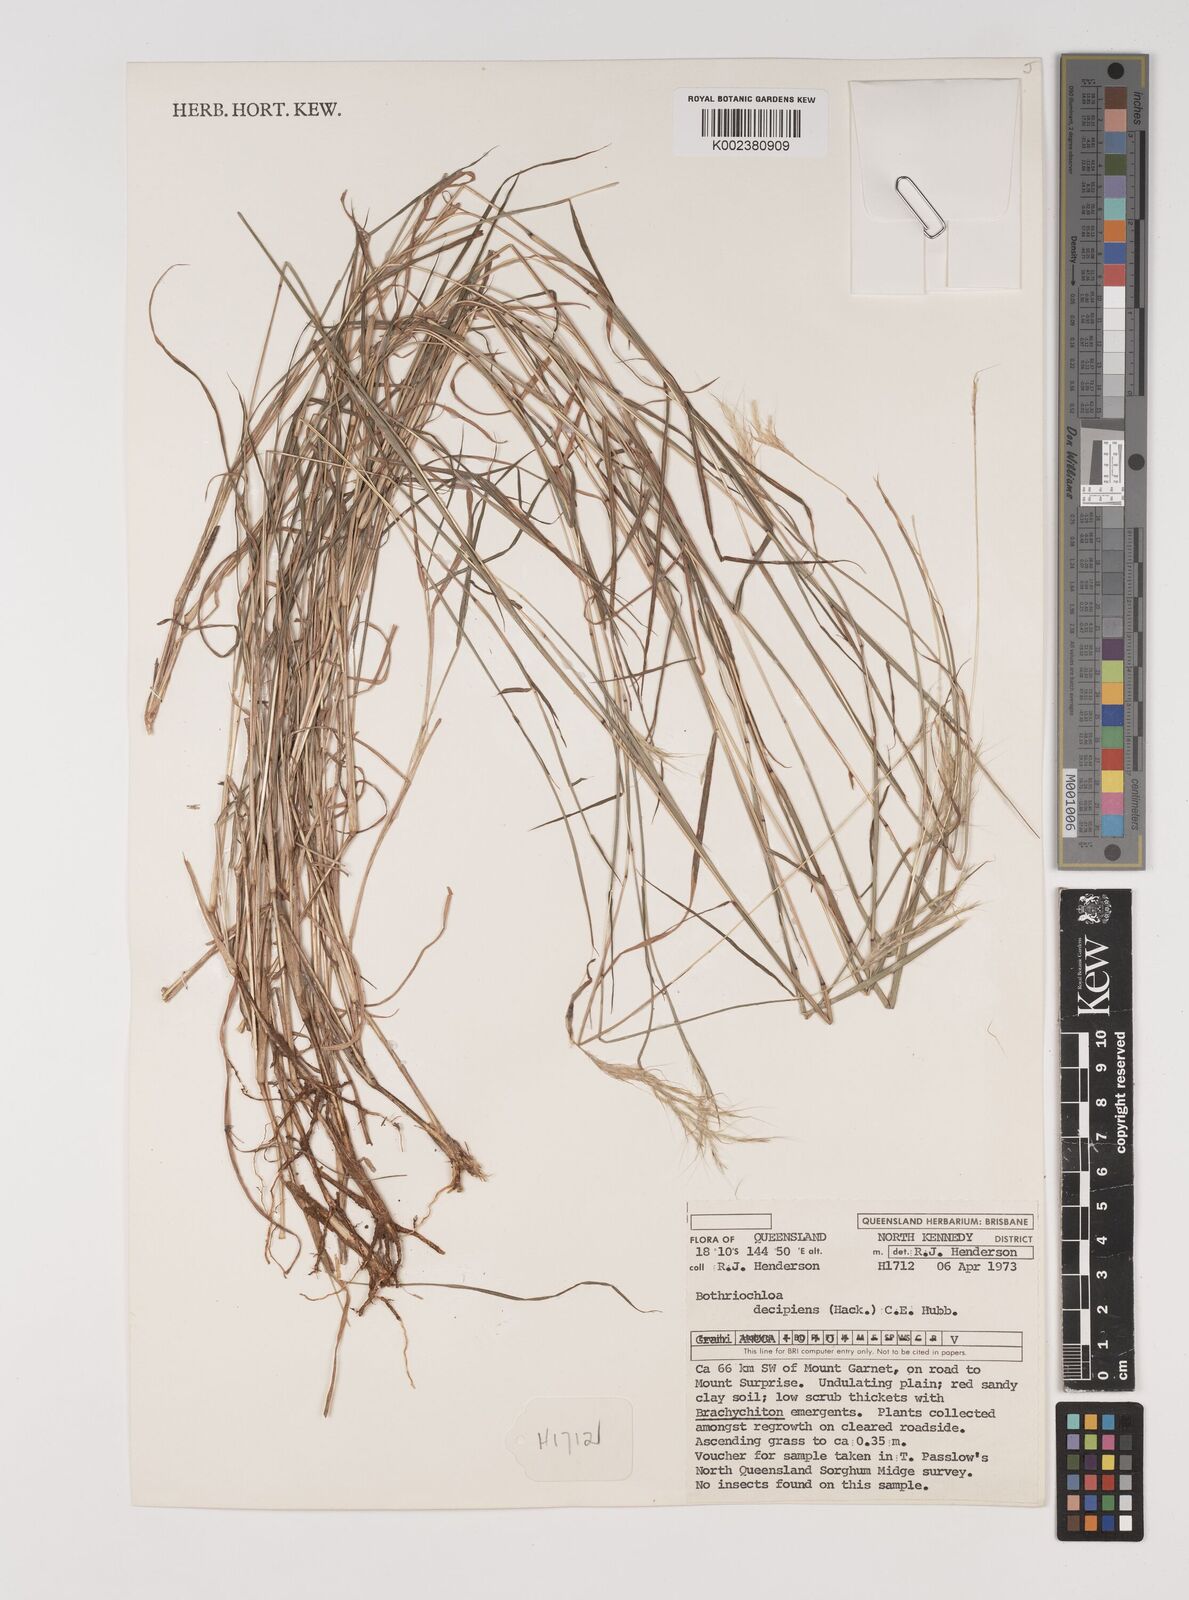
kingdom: Plantae
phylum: Tracheophyta
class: Liliopsida
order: Poales
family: Poaceae
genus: Bothriochloa
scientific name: Bothriochloa decipiens
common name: Pitted-bluegrass
